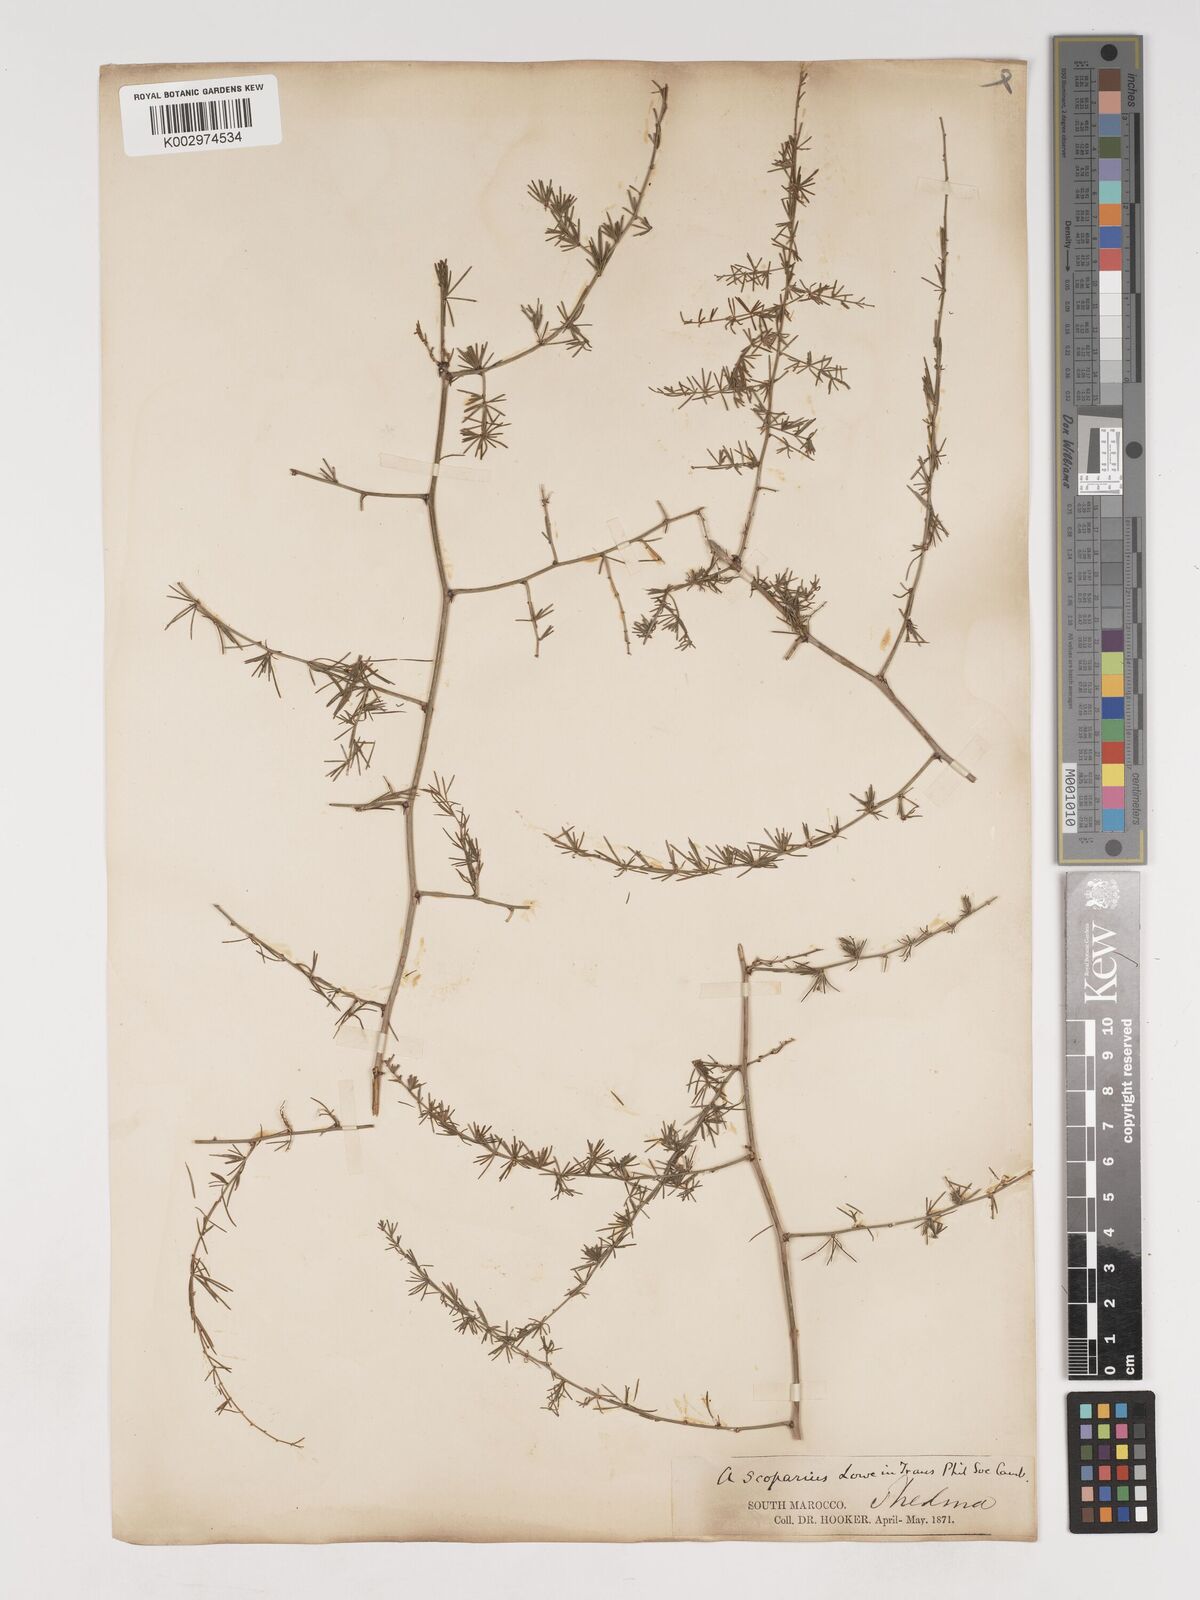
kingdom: Plantae
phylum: Tracheophyta
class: Liliopsida
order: Asparagales
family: Asparagaceae
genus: Asparagus
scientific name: Asparagus scoparius
